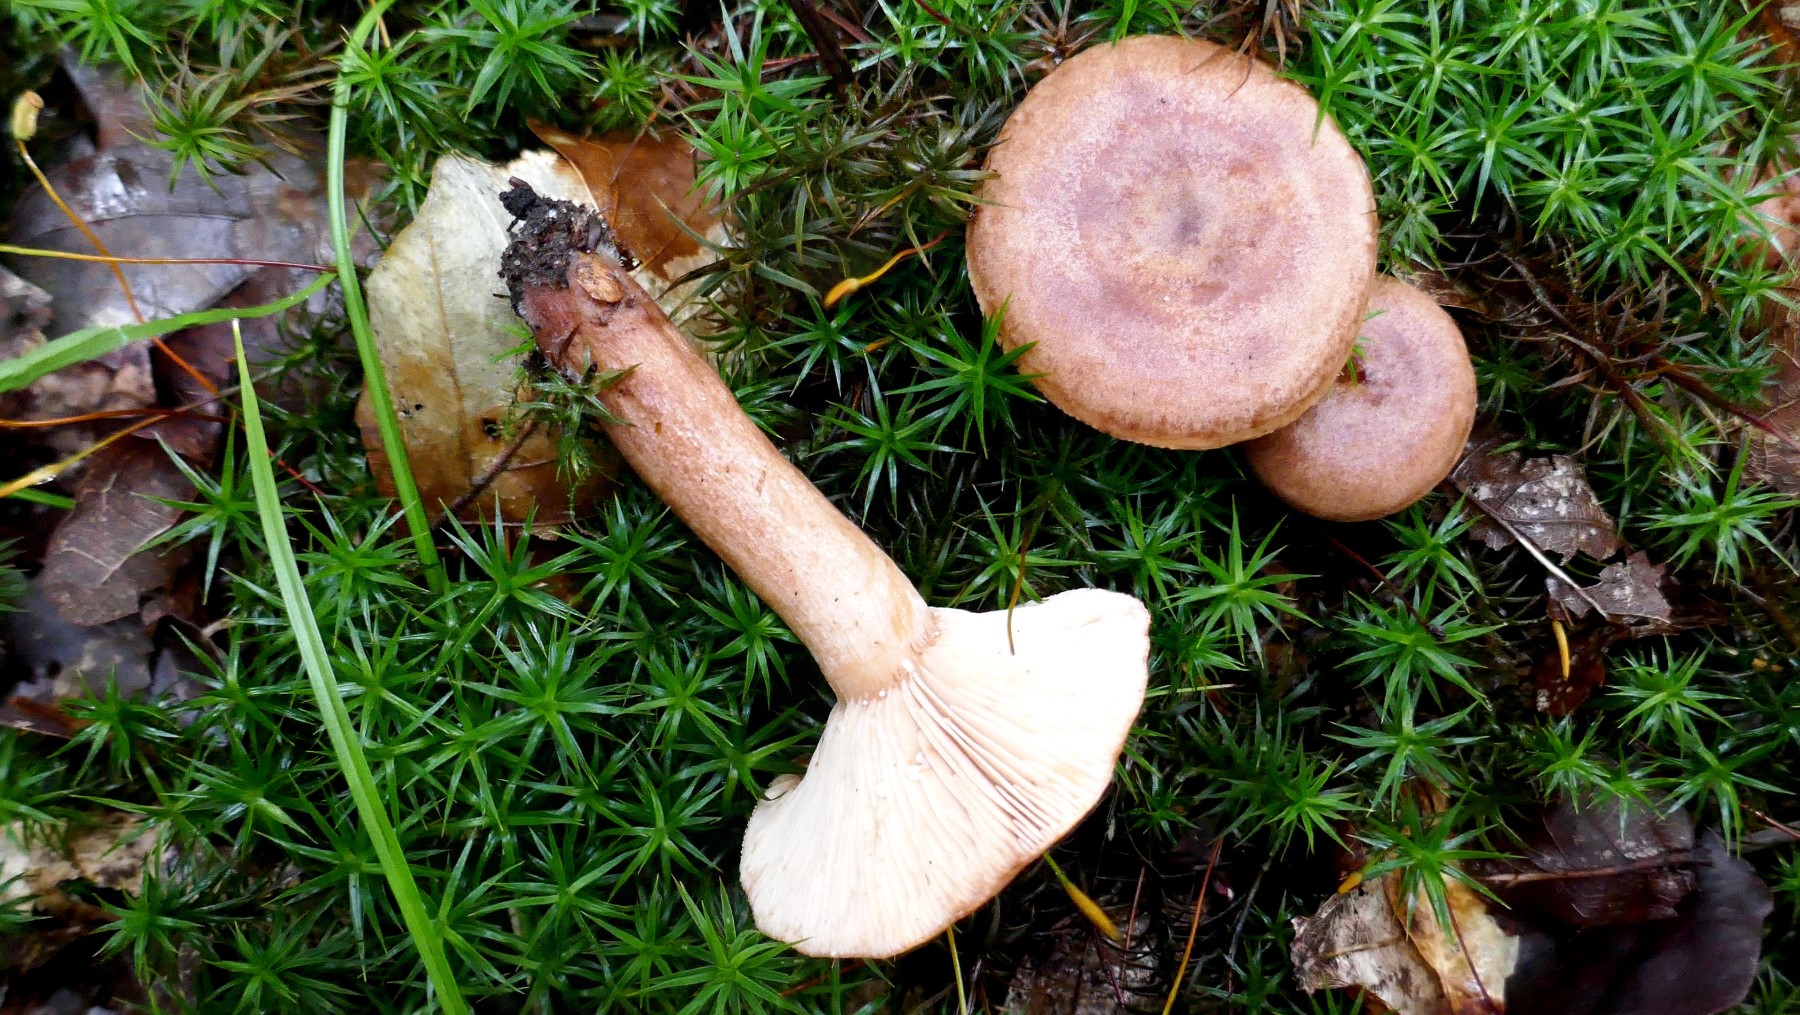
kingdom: Fungi
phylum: Basidiomycota
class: Agaricomycetes
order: Russulales
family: Russulaceae
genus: Lactarius
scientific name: Lactarius quietus
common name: ege-mælkehat
